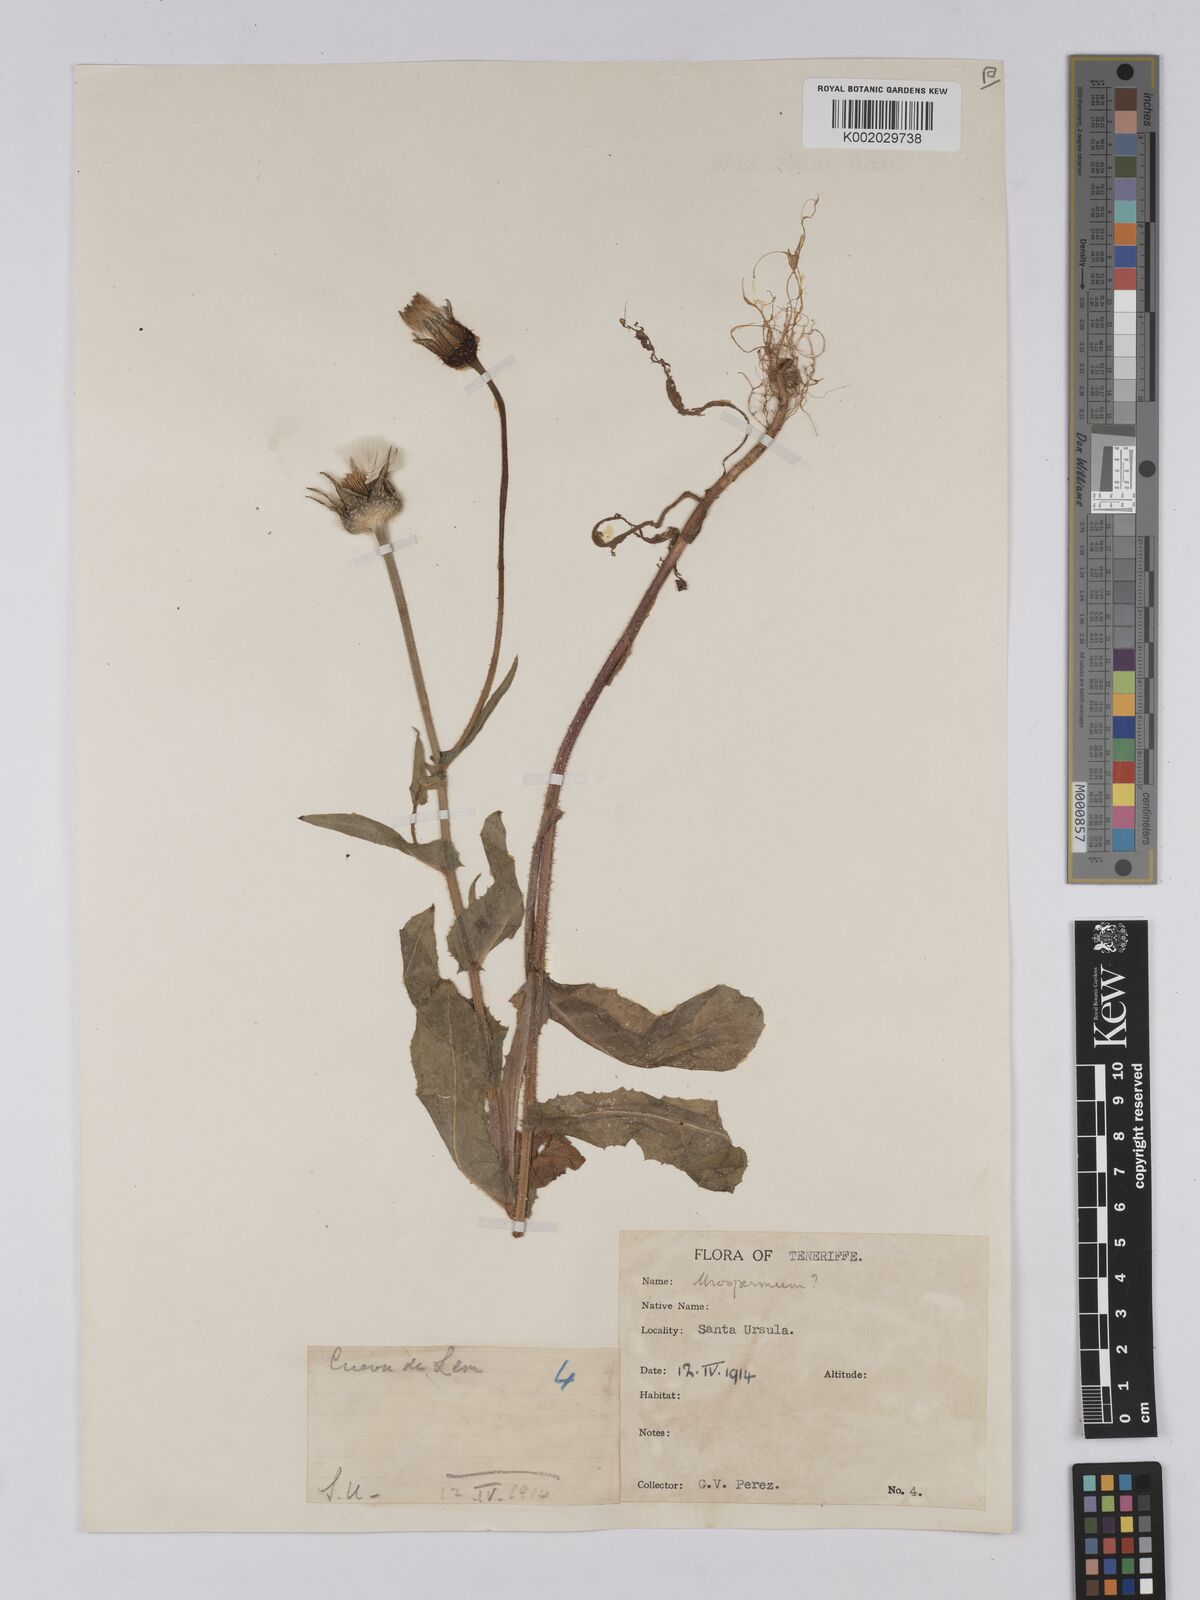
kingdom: Plantae
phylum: Tracheophyta
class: Magnoliopsida
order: Asterales
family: Asteraceae
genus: Urospermum
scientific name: Urospermum picroides
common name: False hawkbit
